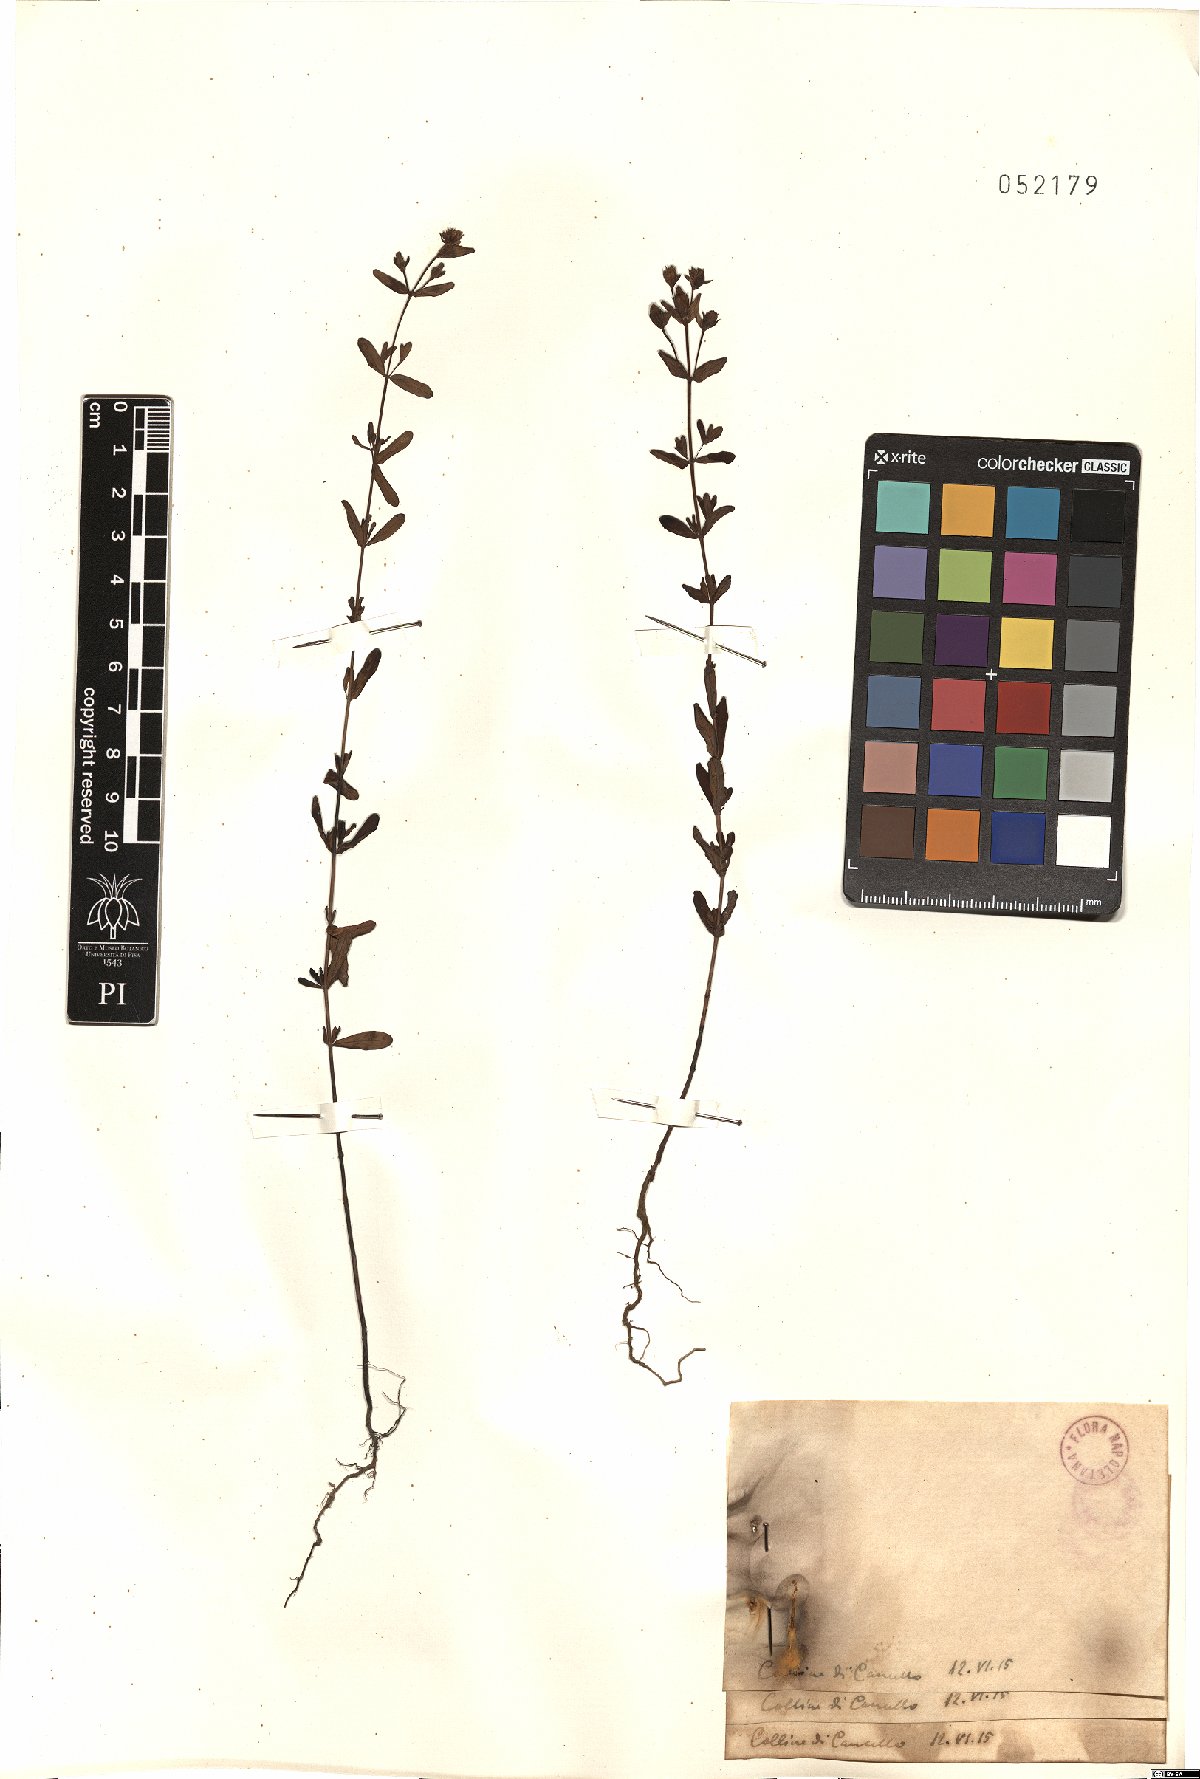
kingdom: Plantae
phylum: Tracheophyta
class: Magnoliopsida
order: Malpighiales
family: Hypericaceae
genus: Hypericum
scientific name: Hypericum
